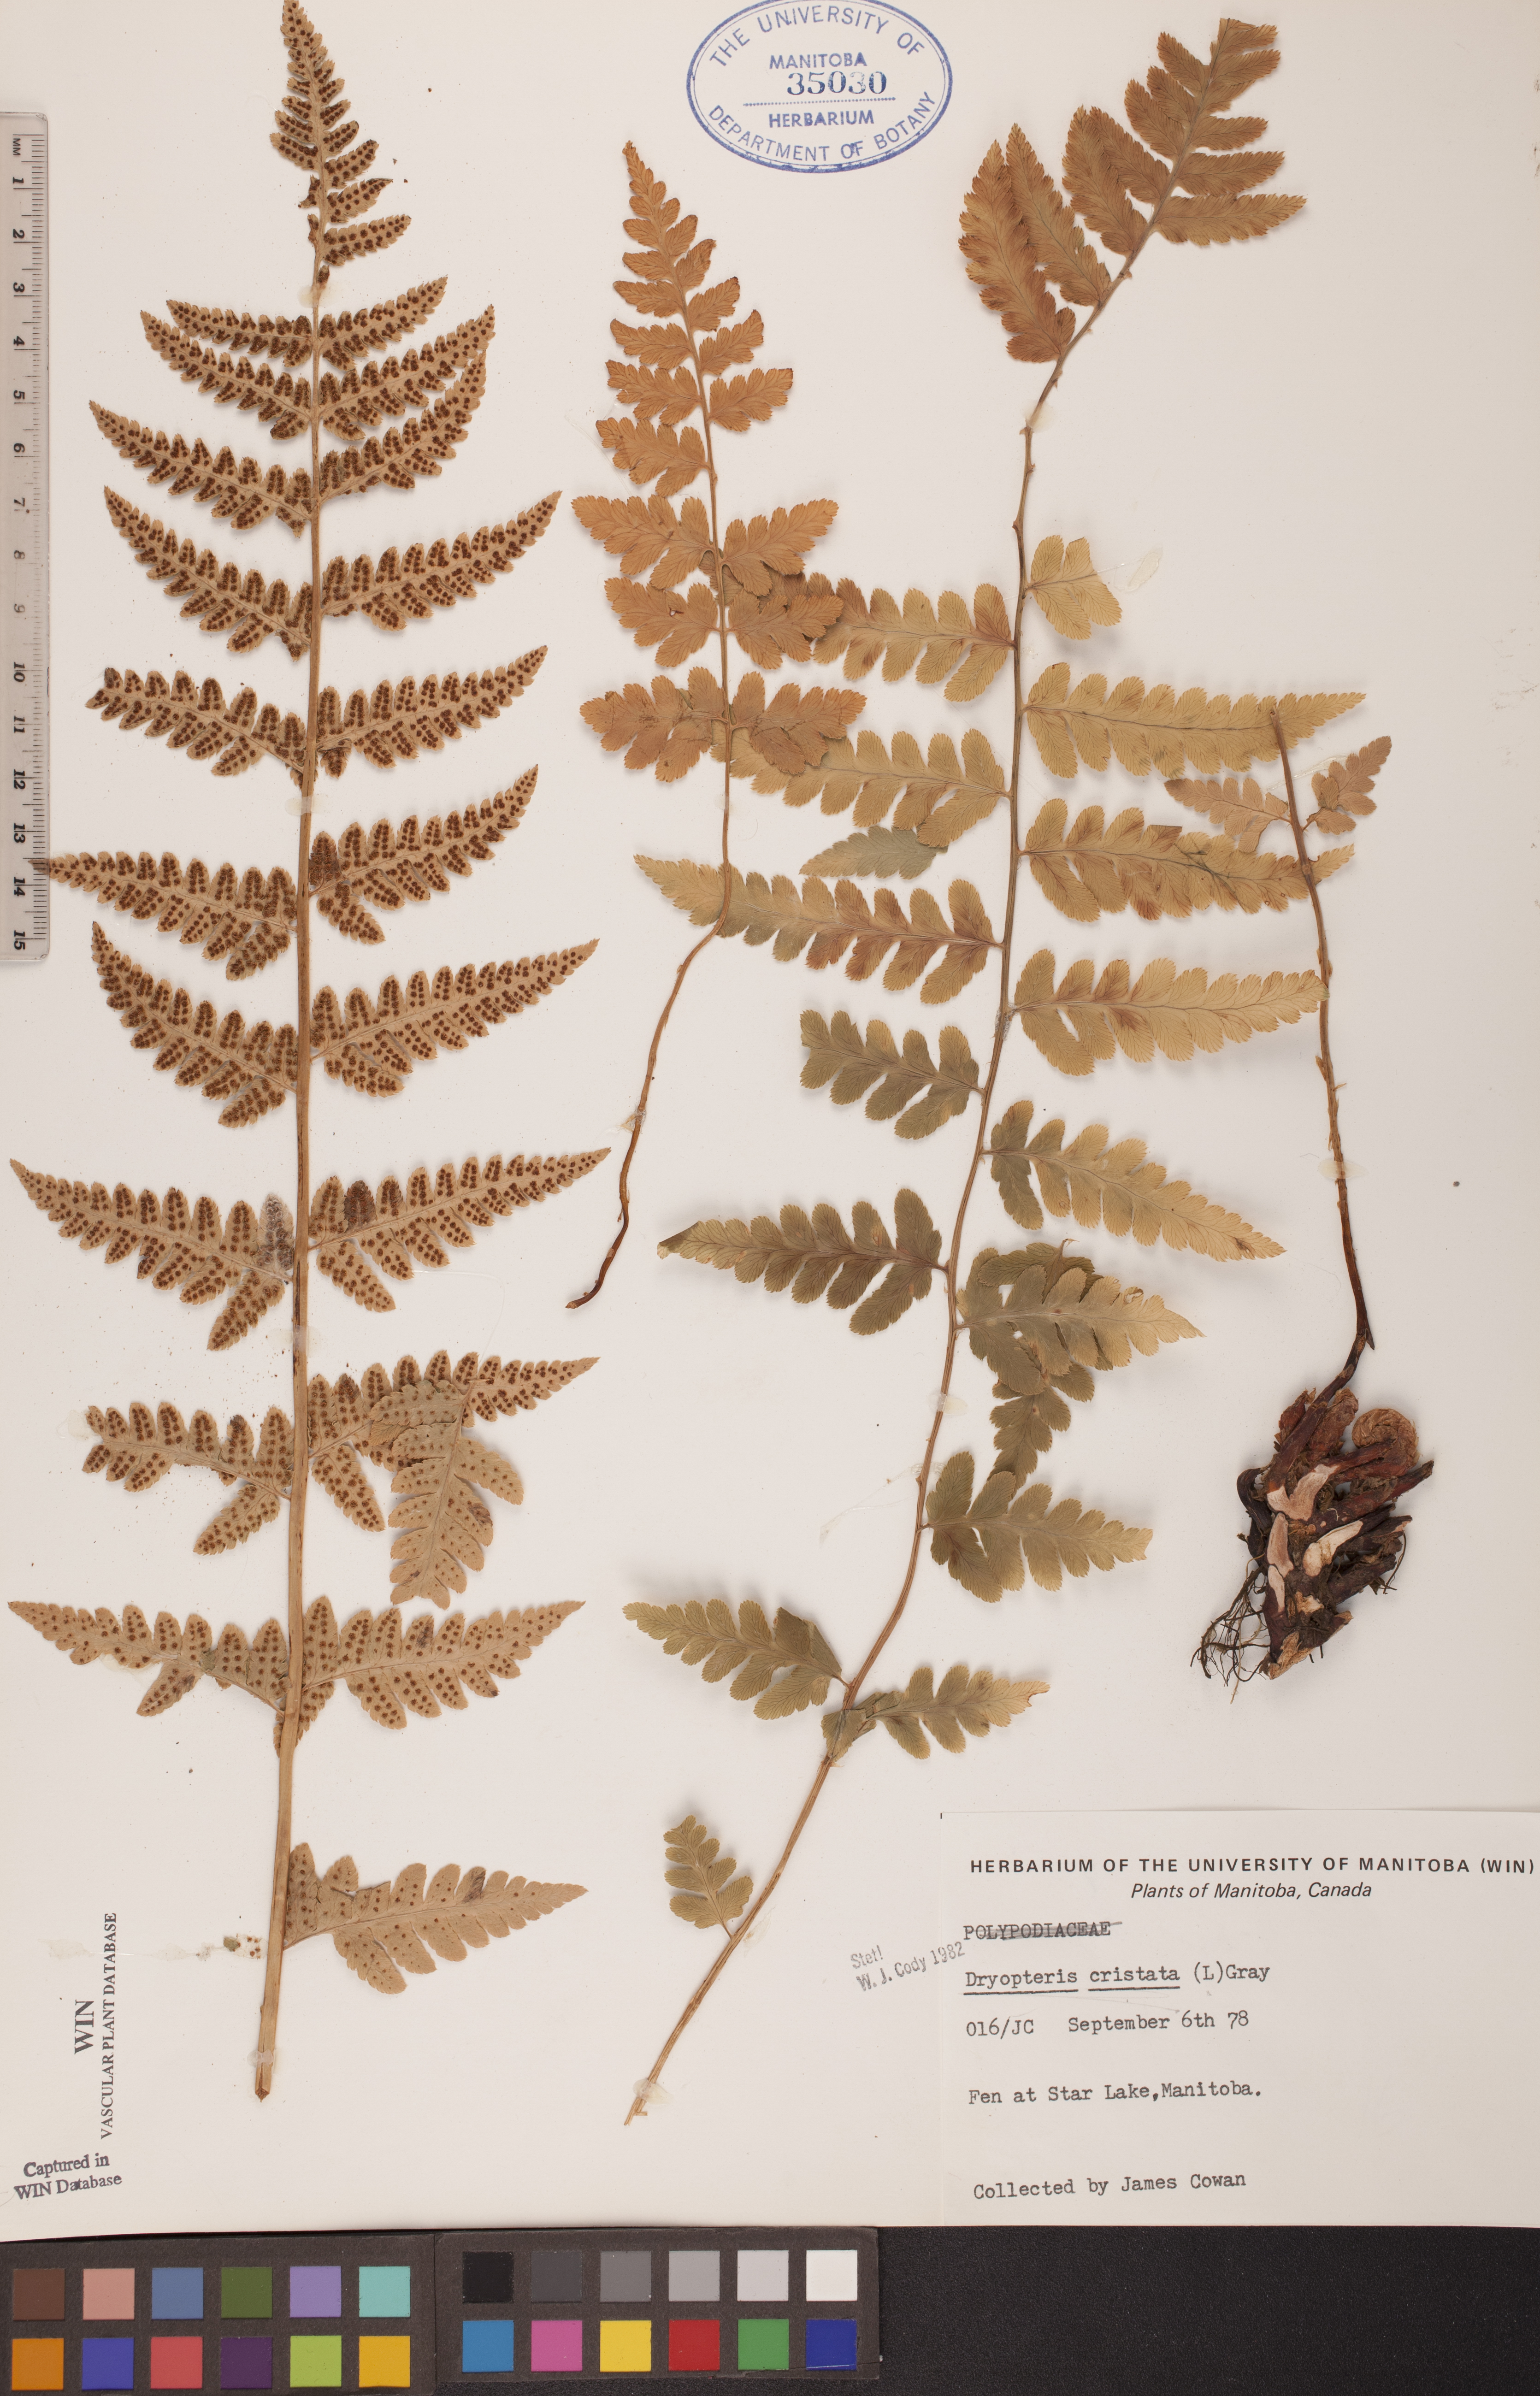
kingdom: Plantae
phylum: Tracheophyta
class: Polypodiopsida
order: Polypodiales
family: Dryopteridaceae
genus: Dryopteris
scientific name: Dryopteris cristata
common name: Crested wood fern
